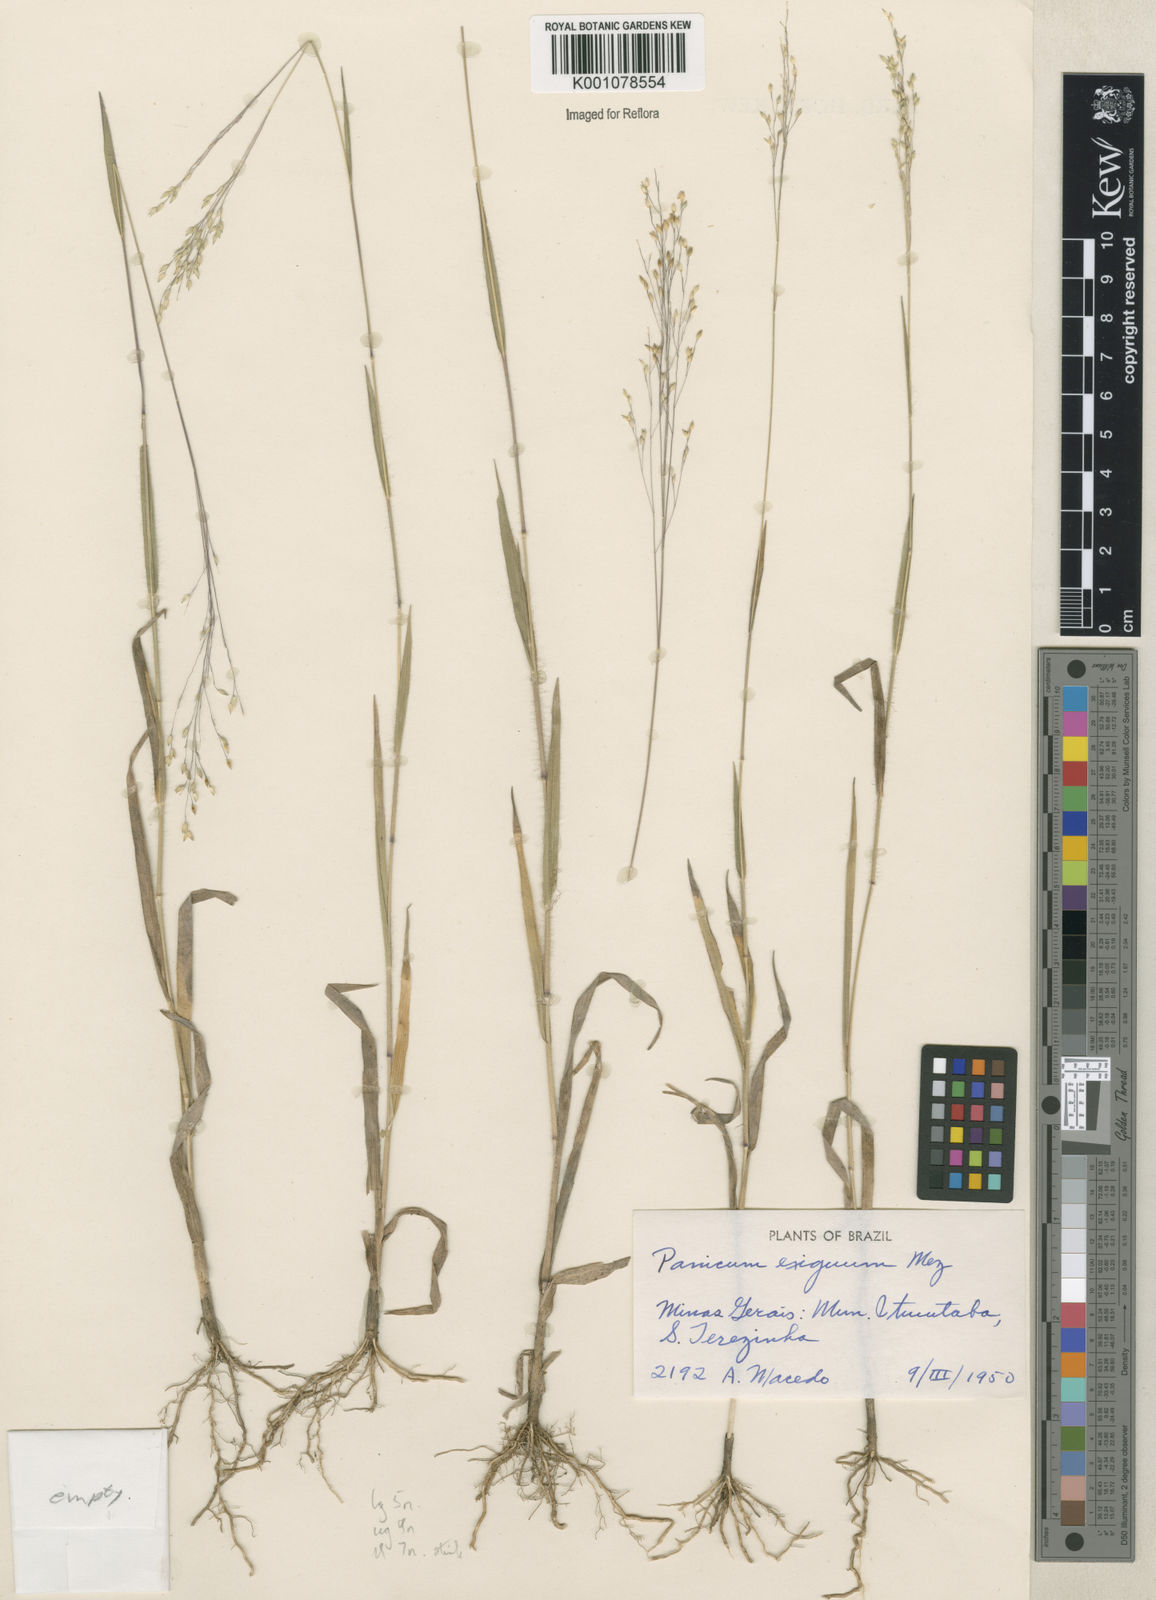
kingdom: Plantae
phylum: Tracheophyta
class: Liliopsida
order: Poales
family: Poaceae
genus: Panicum
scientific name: Panicum exiguum
